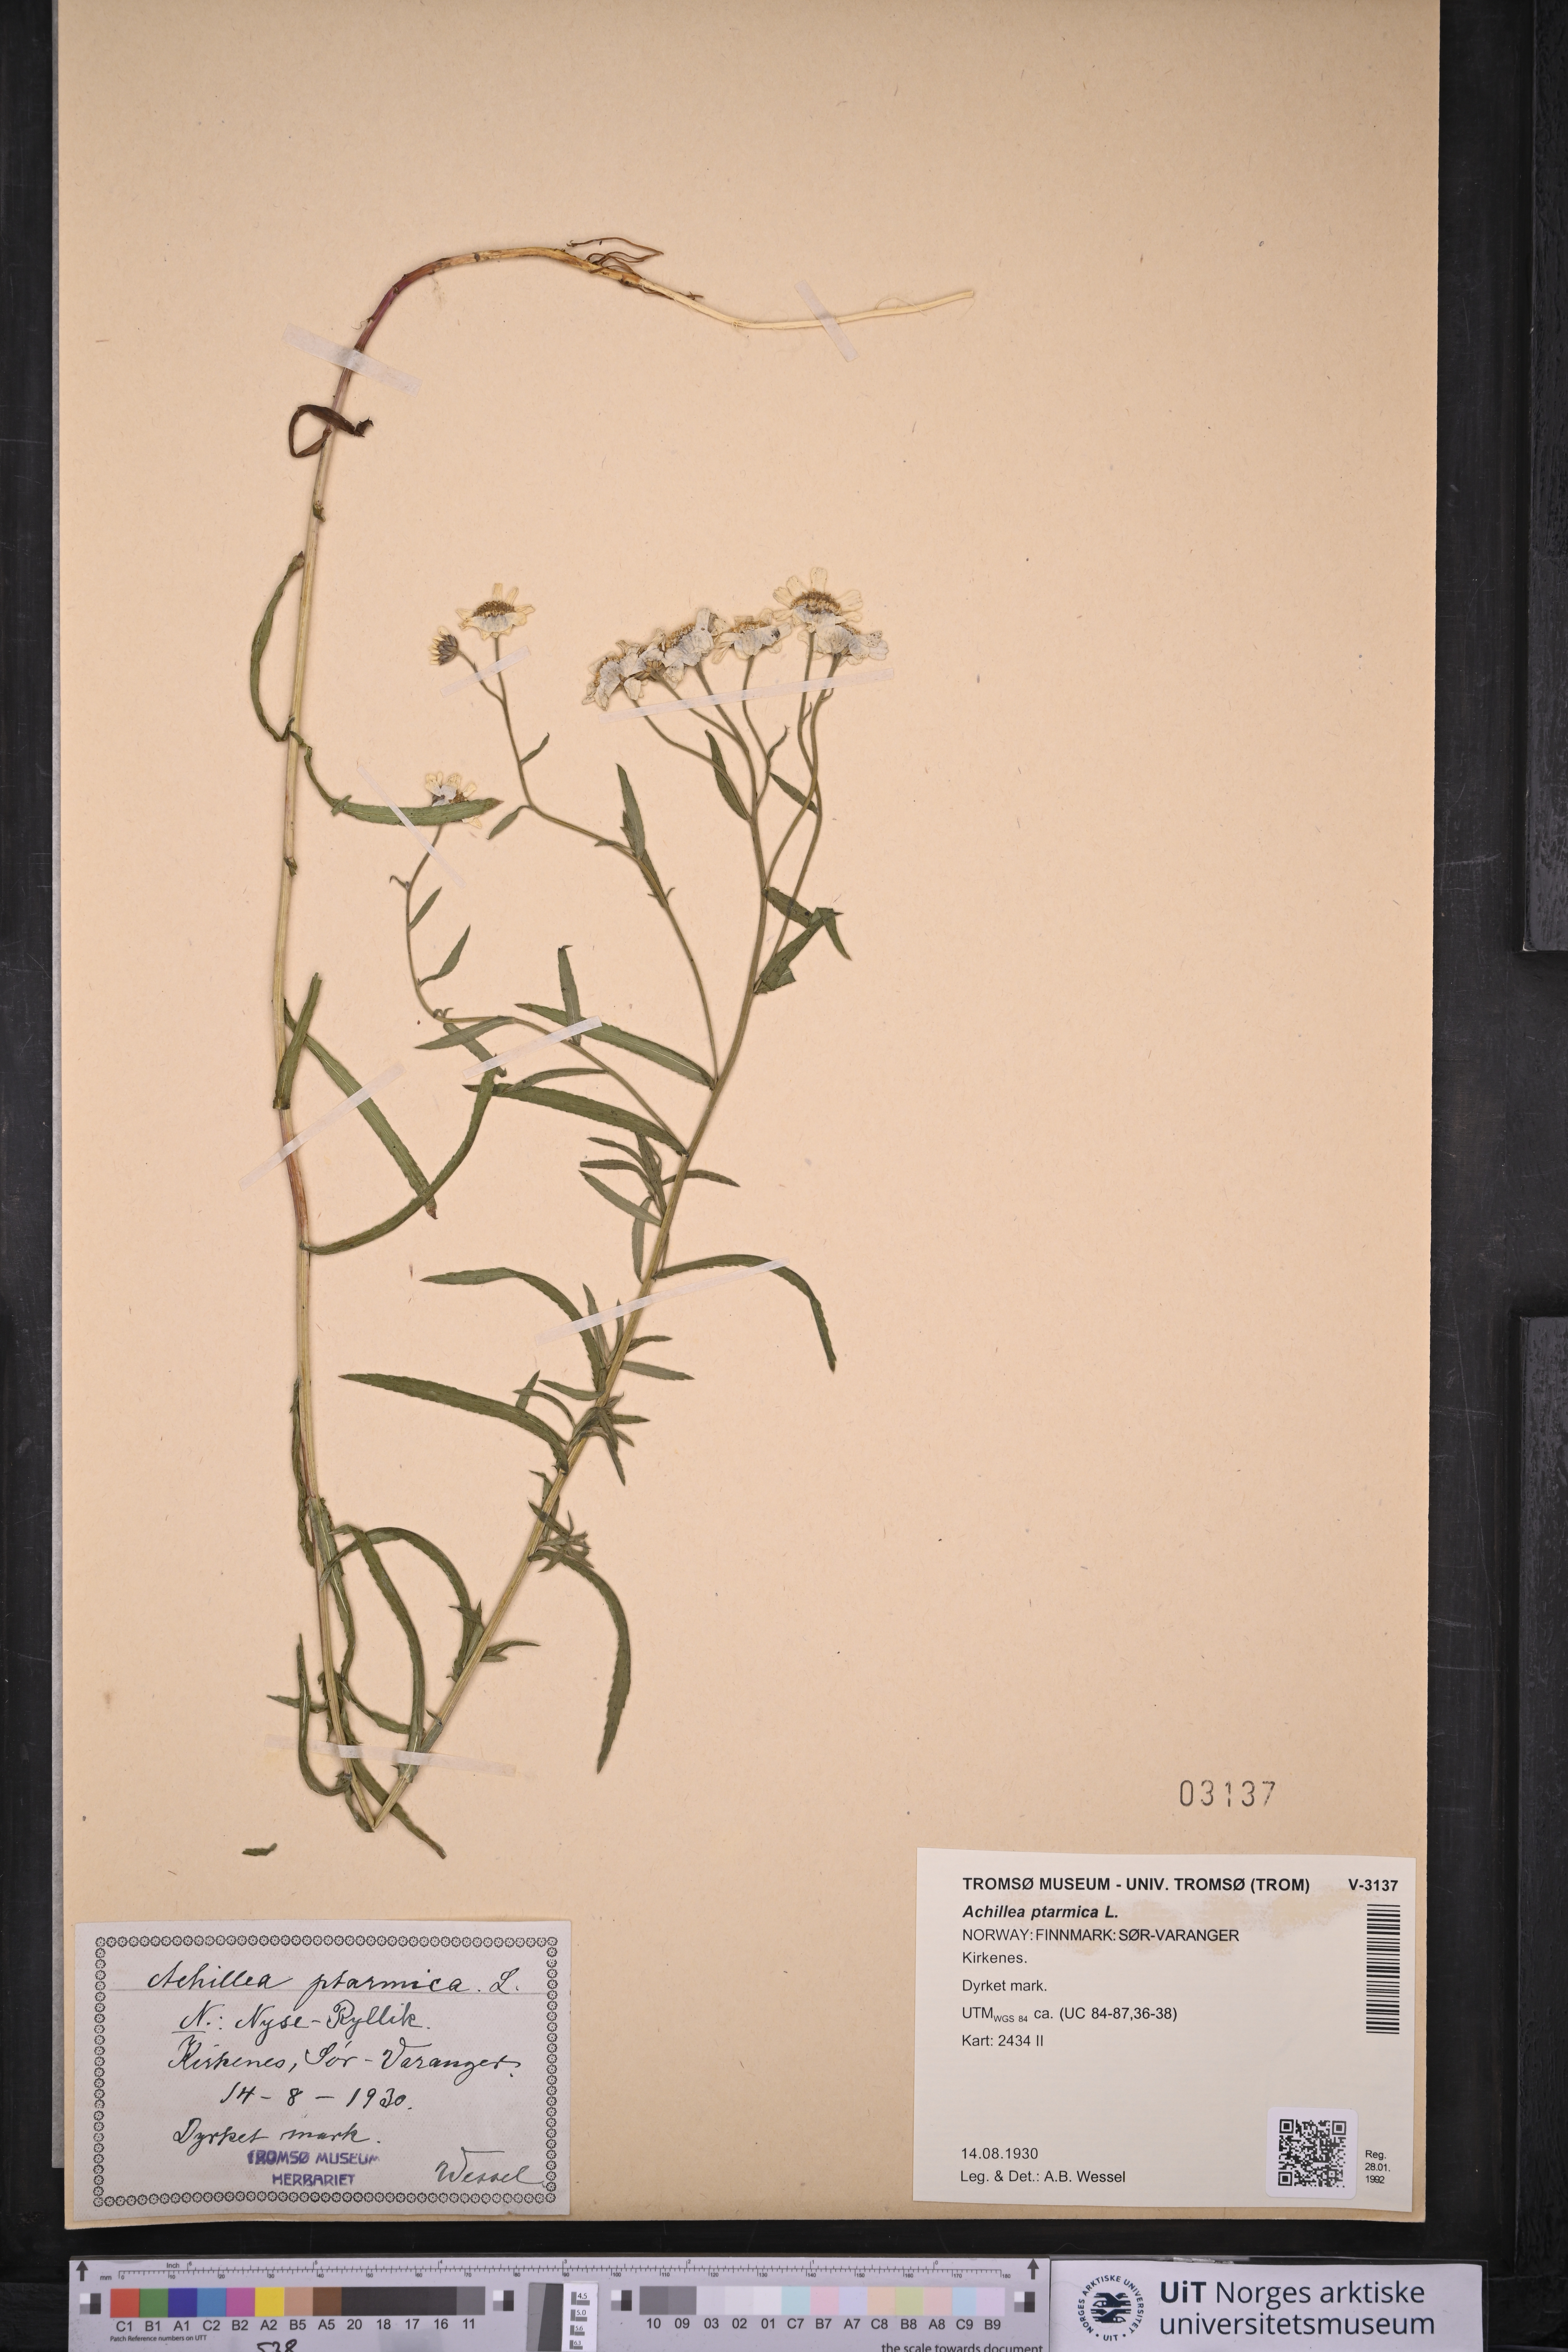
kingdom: Plantae
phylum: Tracheophyta
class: Magnoliopsida
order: Asterales
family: Asteraceae
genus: Achillea
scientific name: Achillea ptarmica
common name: Sneezeweed
